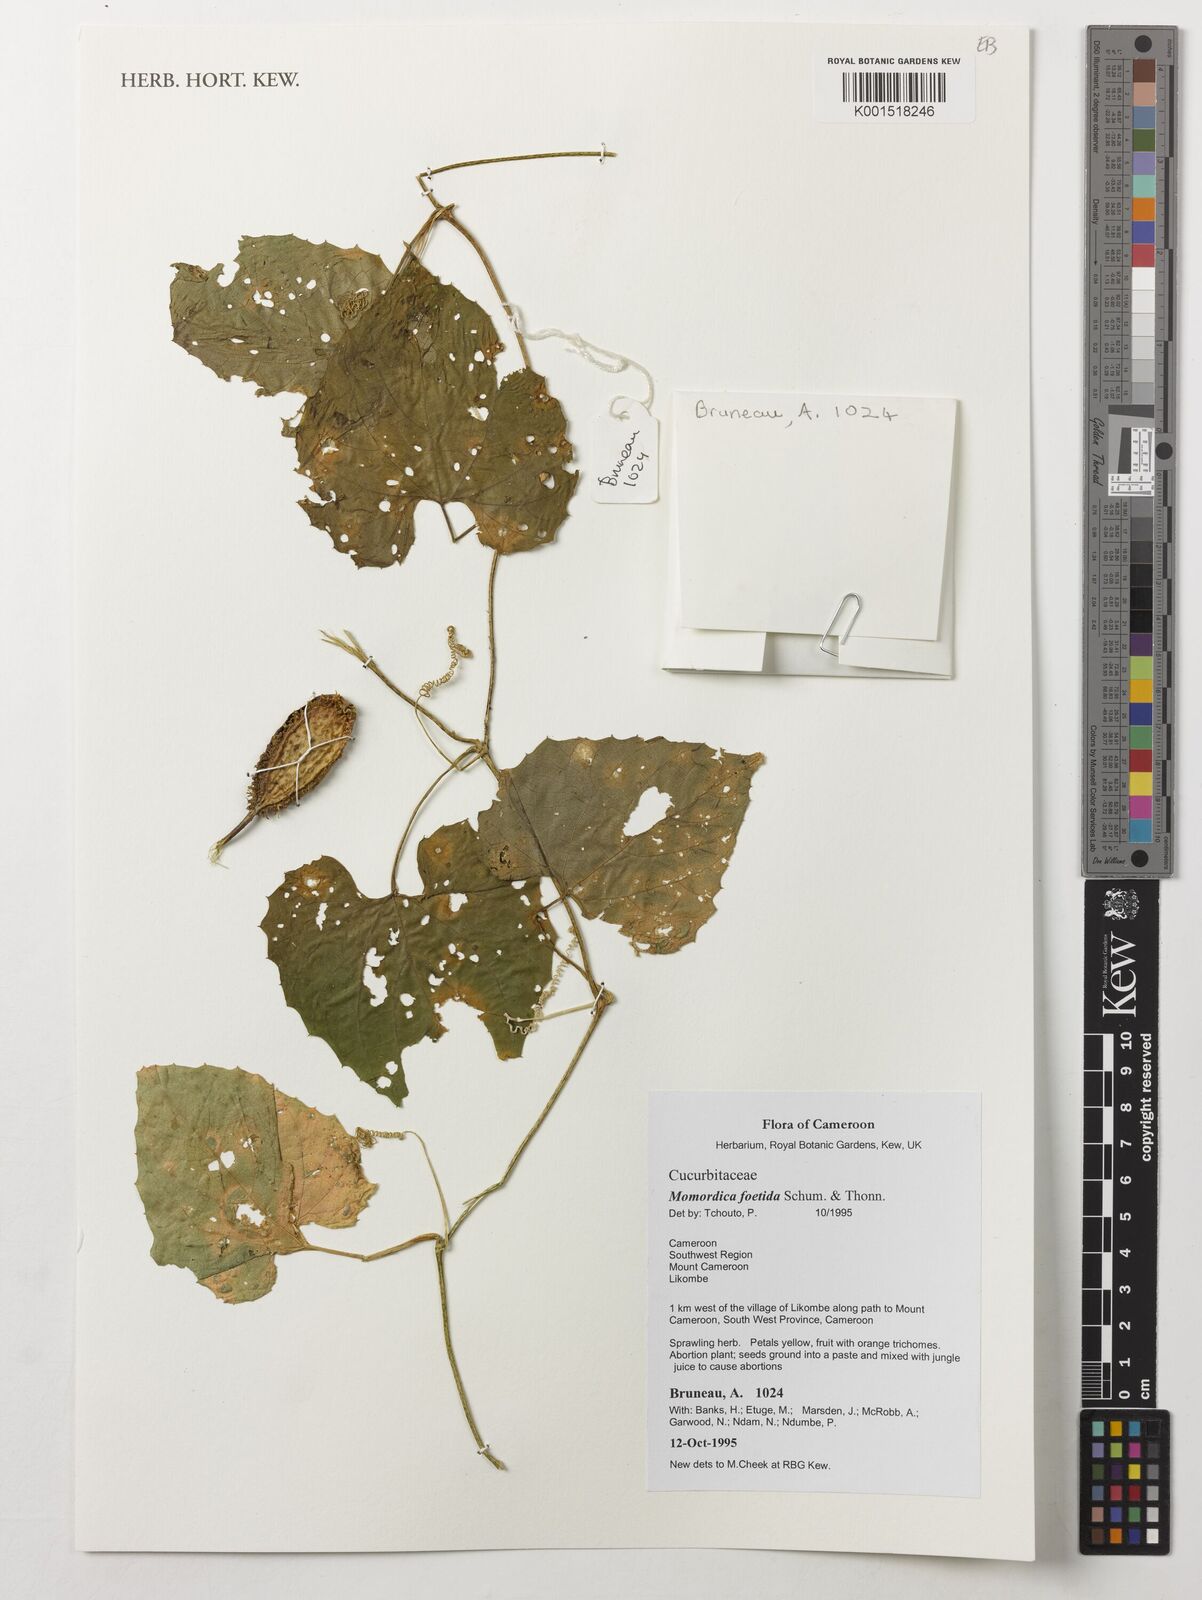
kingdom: Plantae
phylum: Tracheophyta
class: Magnoliopsida
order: Cucurbitales
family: Cucurbitaceae
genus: Momordica
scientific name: Momordica foetida
